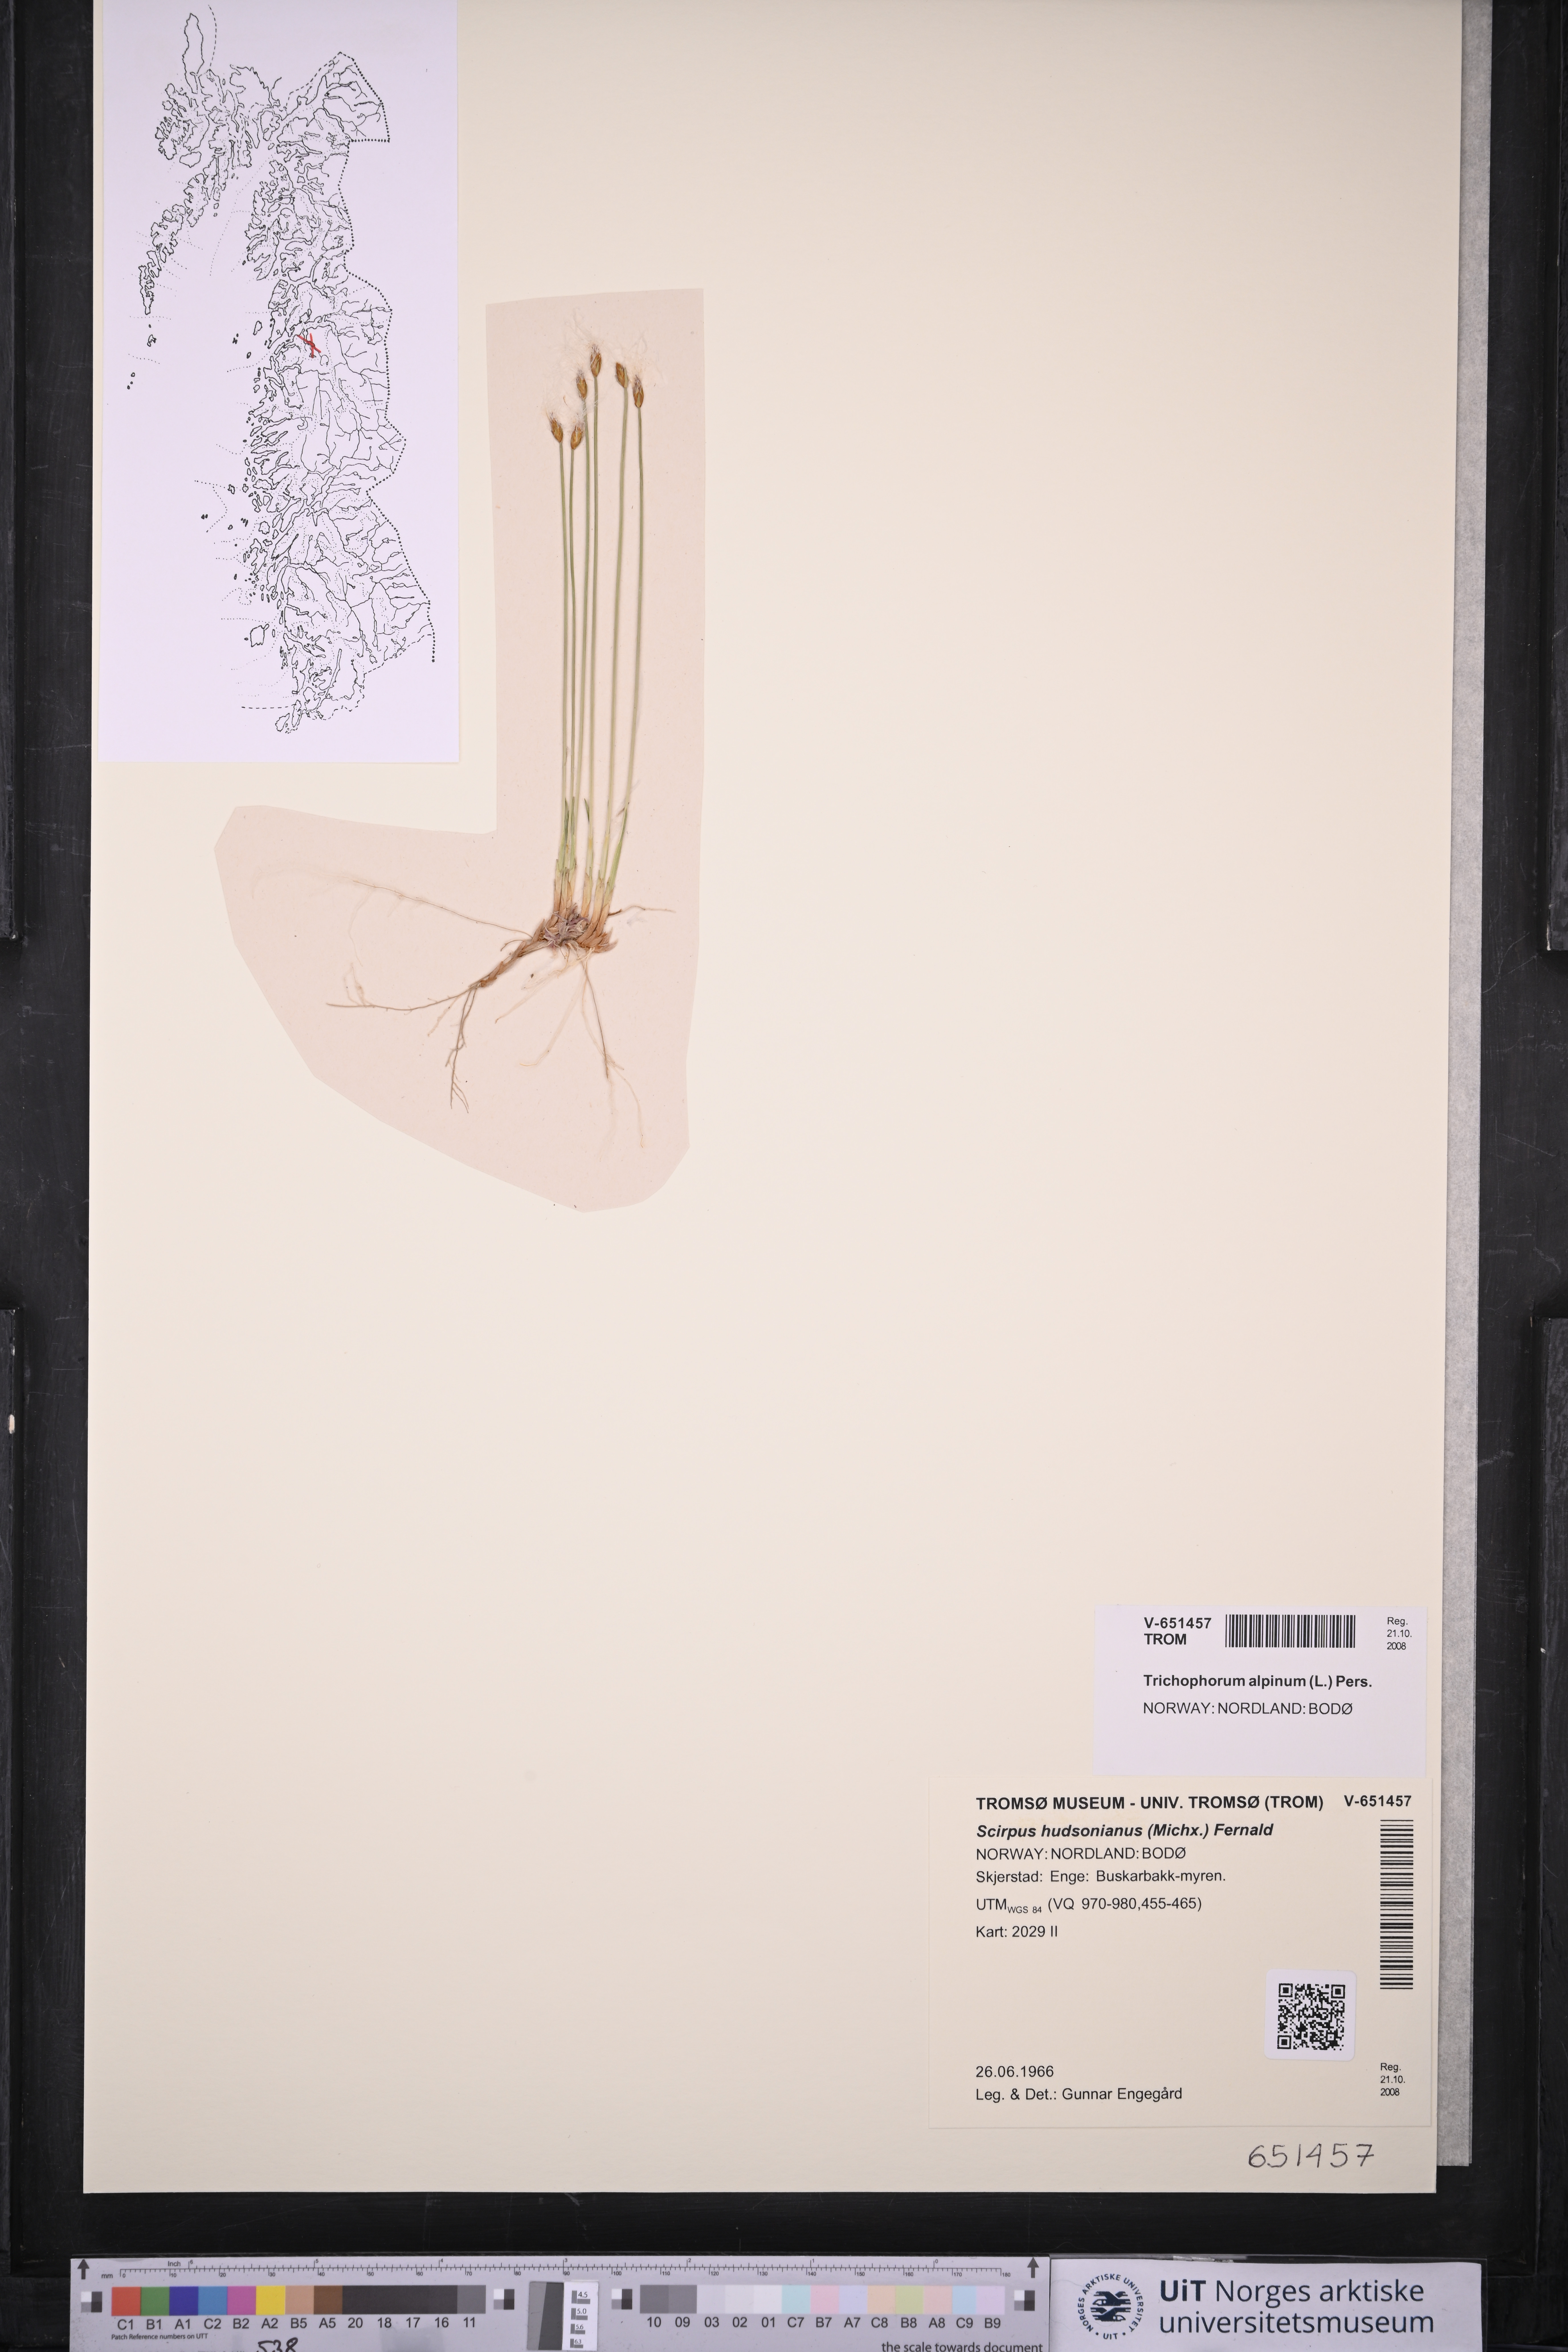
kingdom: Plantae
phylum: Tracheophyta
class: Liliopsida
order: Poales
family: Cyperaceae
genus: Trichophorum
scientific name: Trichophorum alpinum
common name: Alpine bulrush
